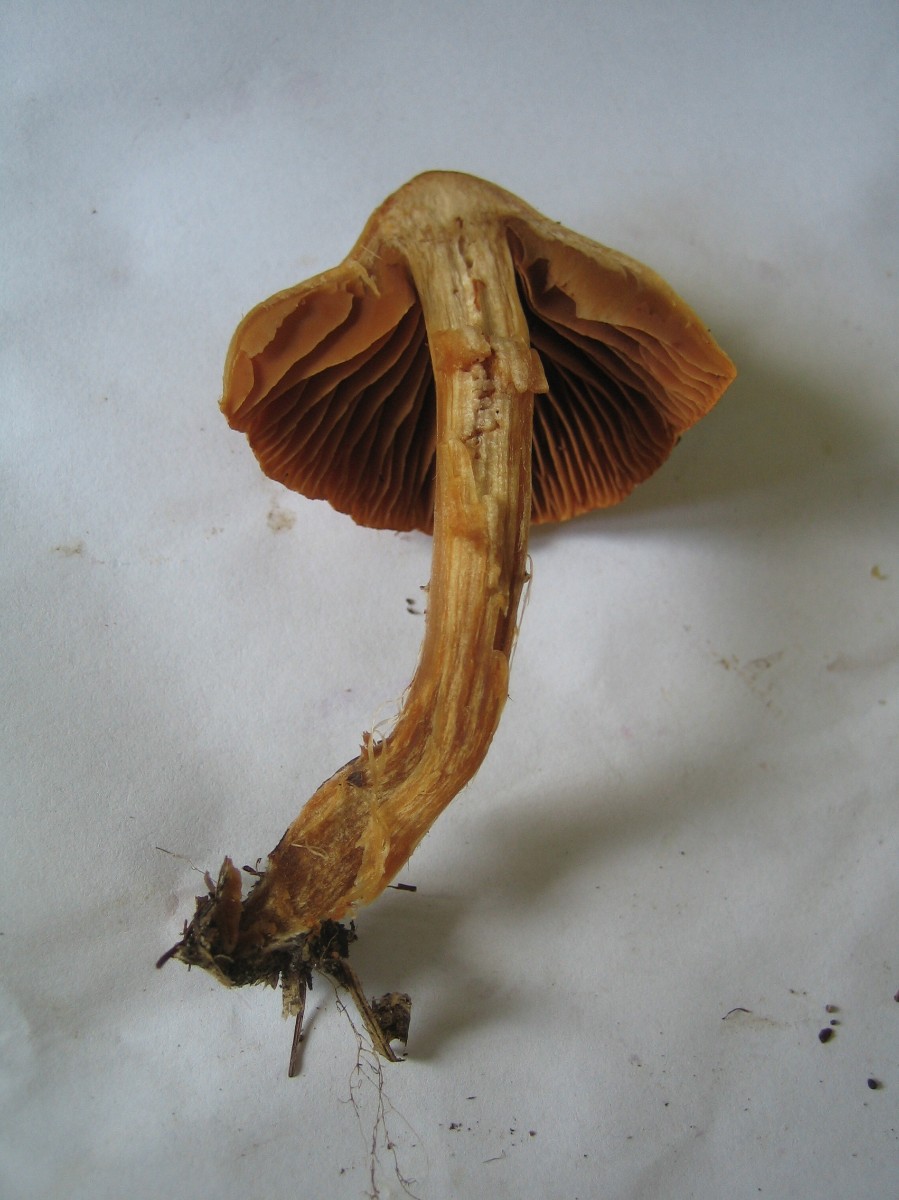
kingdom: Fungi
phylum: Basidiomycota
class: Agaricomycetes
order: Agaricales
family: Cortinariaceae
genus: Cortinarius
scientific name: Cortinarius
